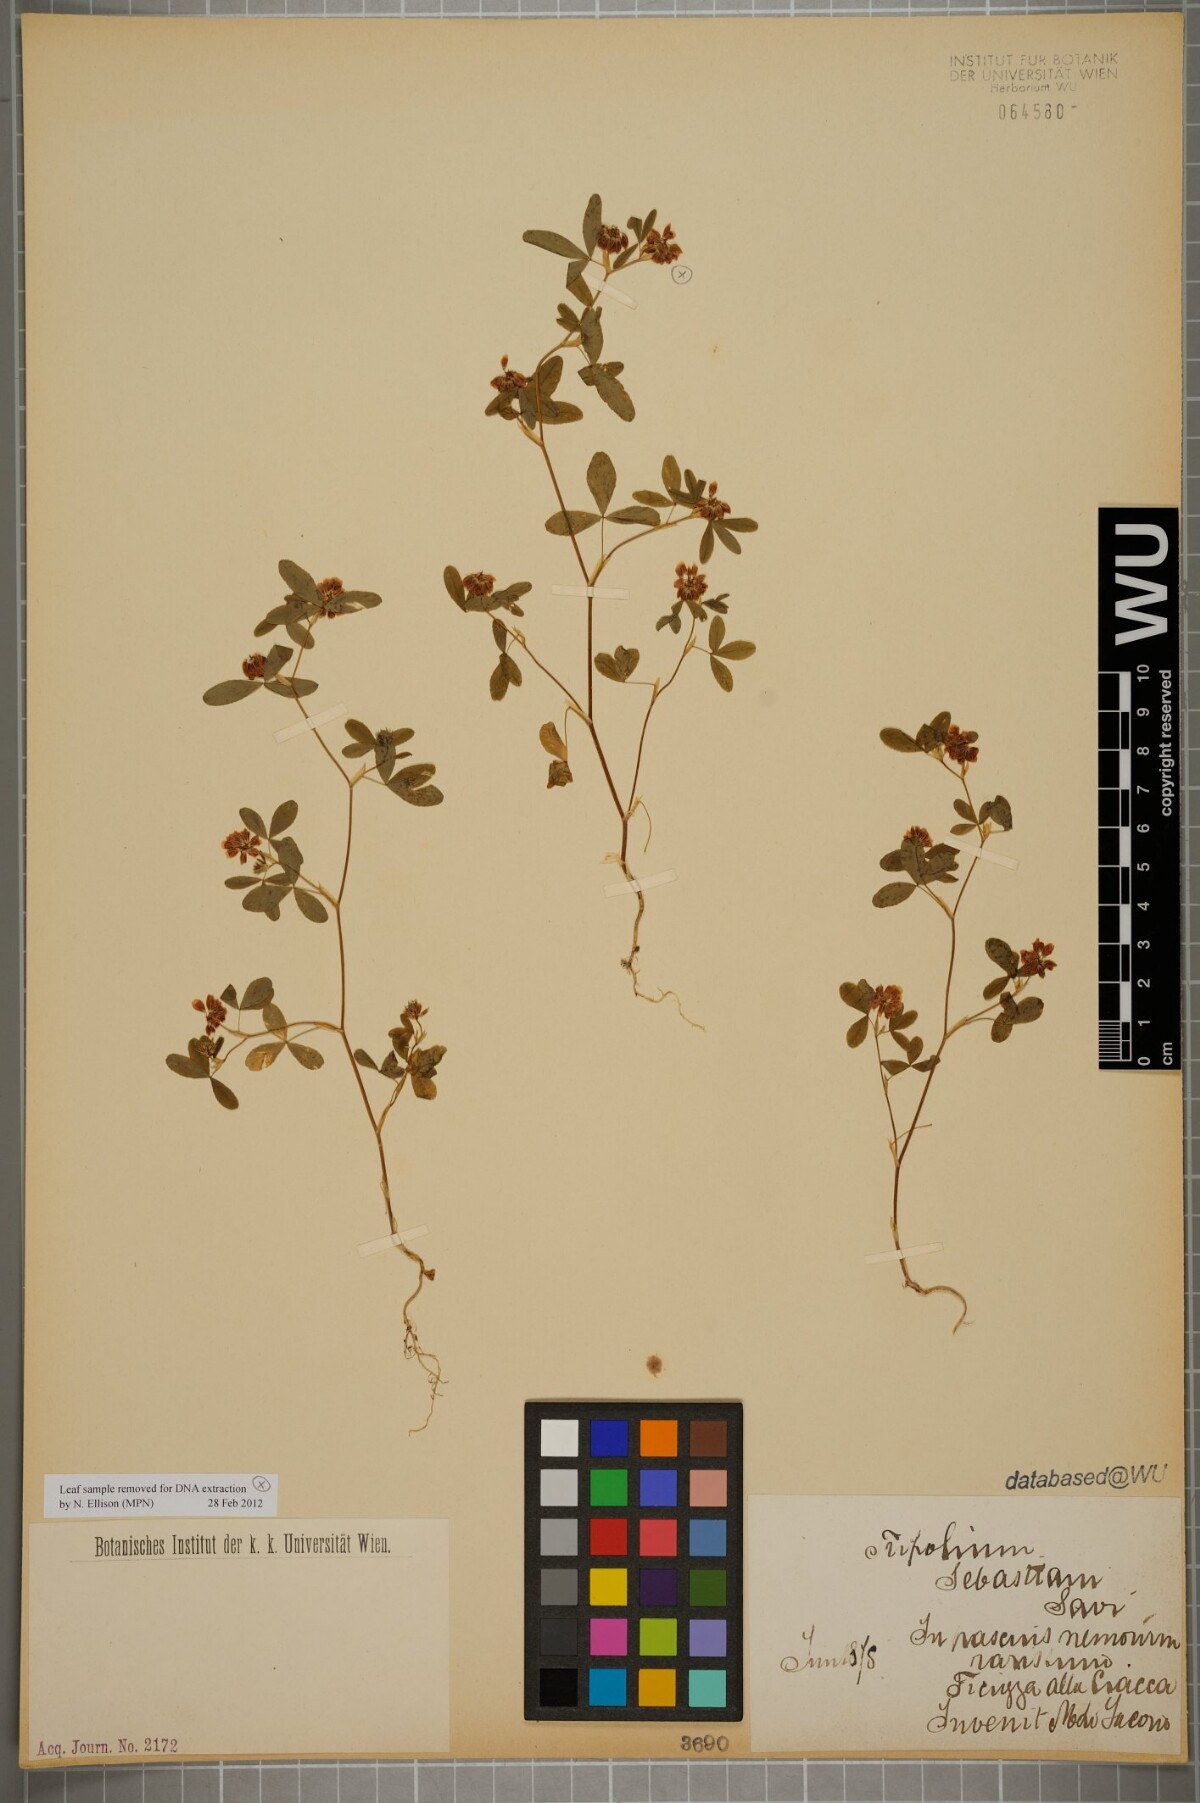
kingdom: Plantae
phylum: Tracheophyta
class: Magnoliopsida
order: Fabales
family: Fabaceae
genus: Trifolium
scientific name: Trifolium sebastiani
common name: Sebastian's clover
